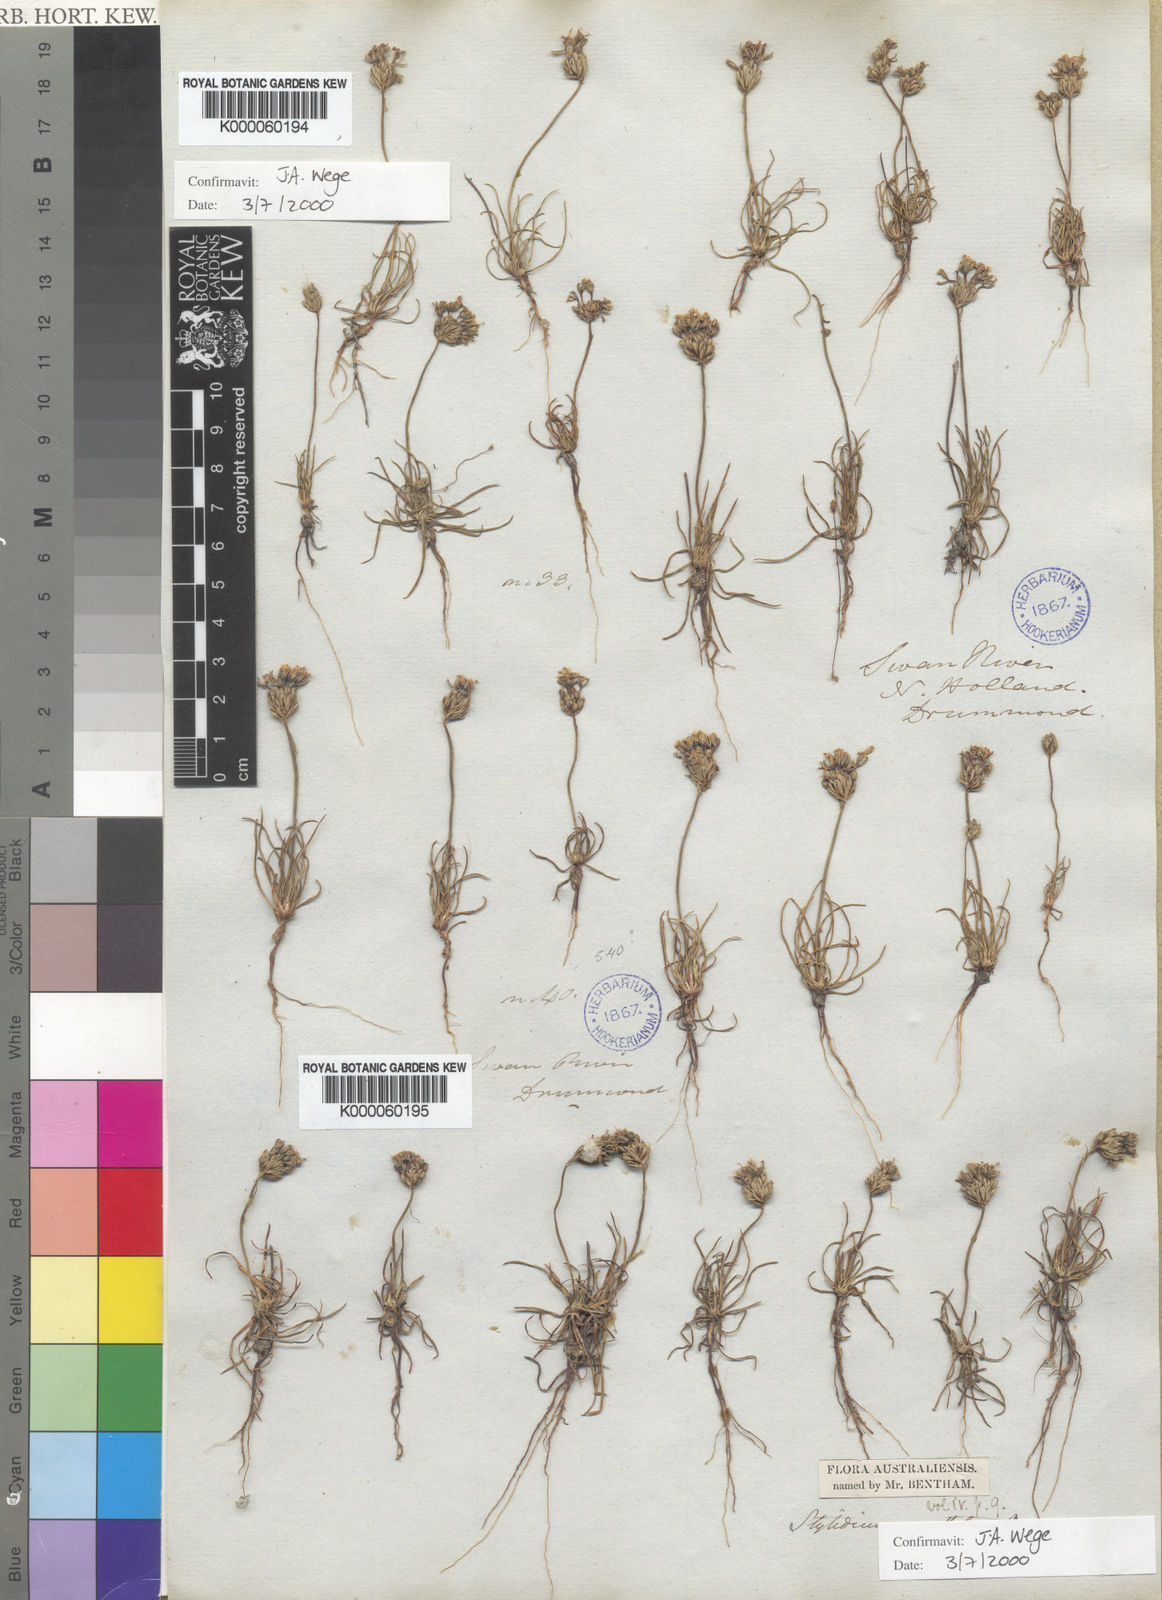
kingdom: Plantae
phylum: Tracheophyta
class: Magnoliopsida
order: Asterales
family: Stylidiaceae
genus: Stylidium
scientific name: Stylidium guttatum
